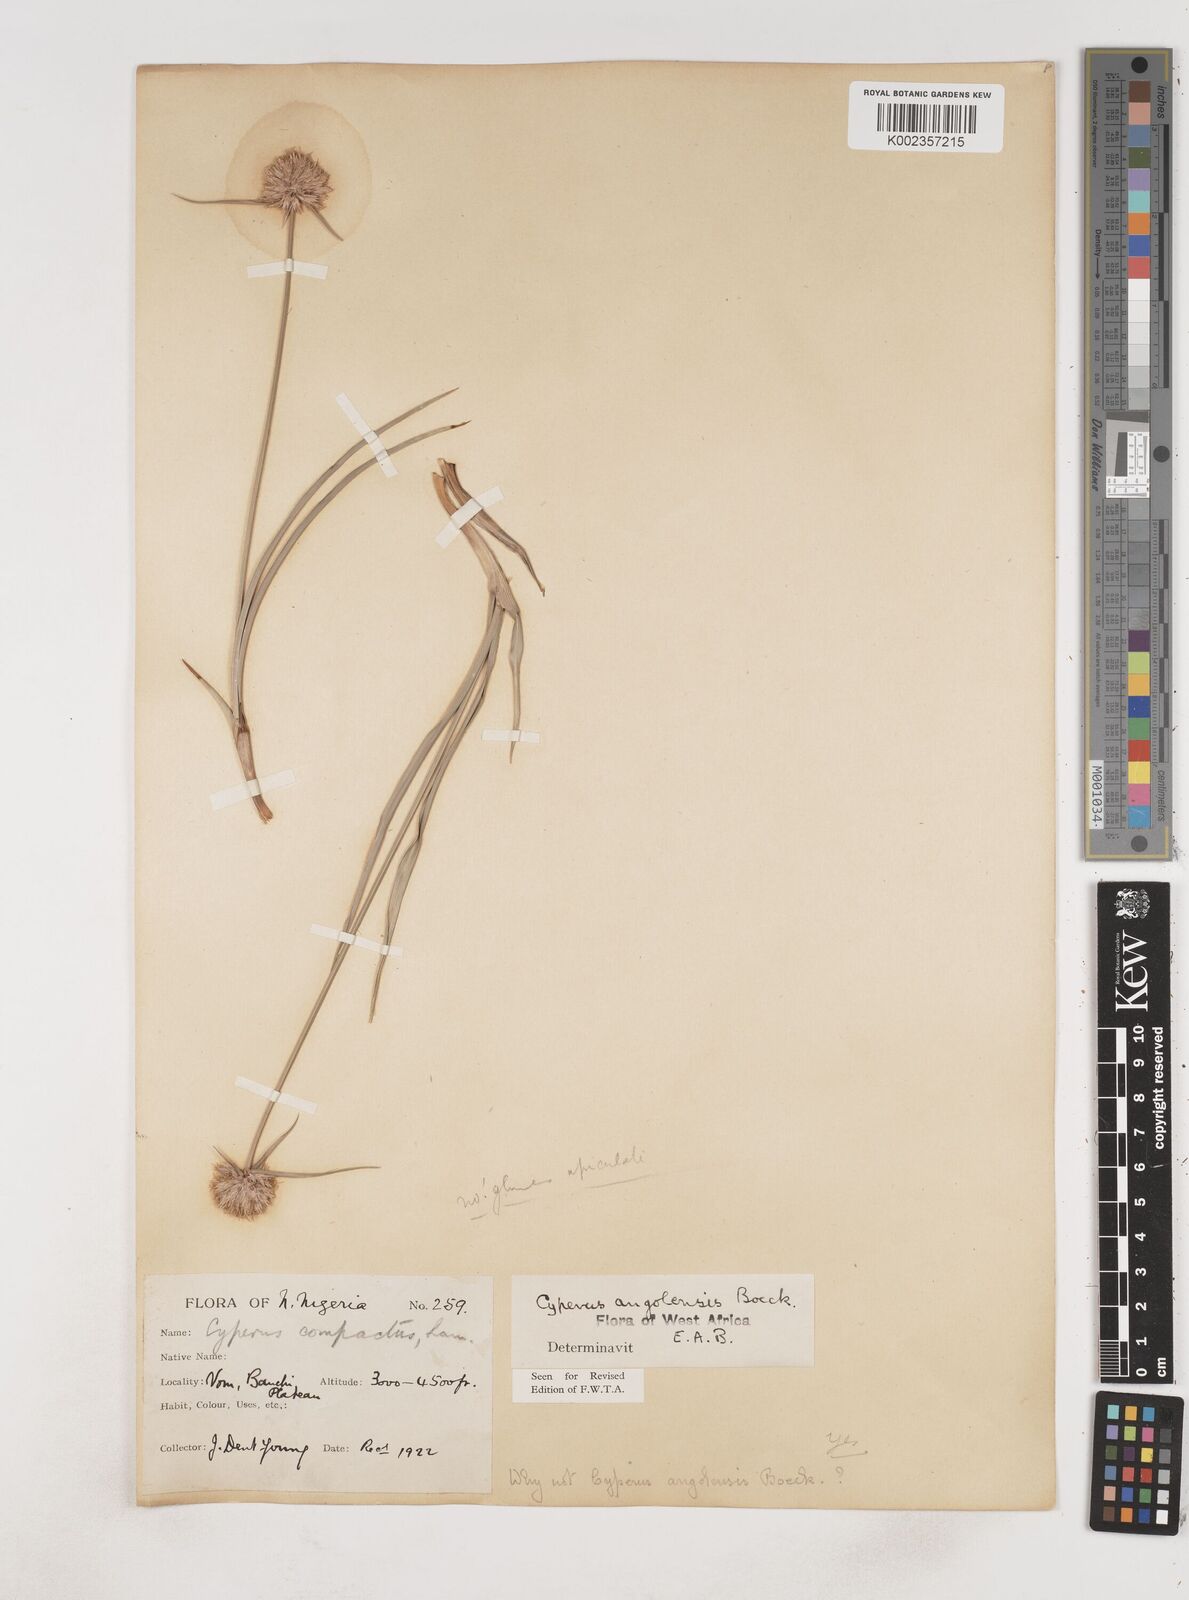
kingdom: Plantae
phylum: Tracheophyta
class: Liliopsida
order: Poales
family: Cyperaceae
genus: Cyperus
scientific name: Cyperus angolensis
